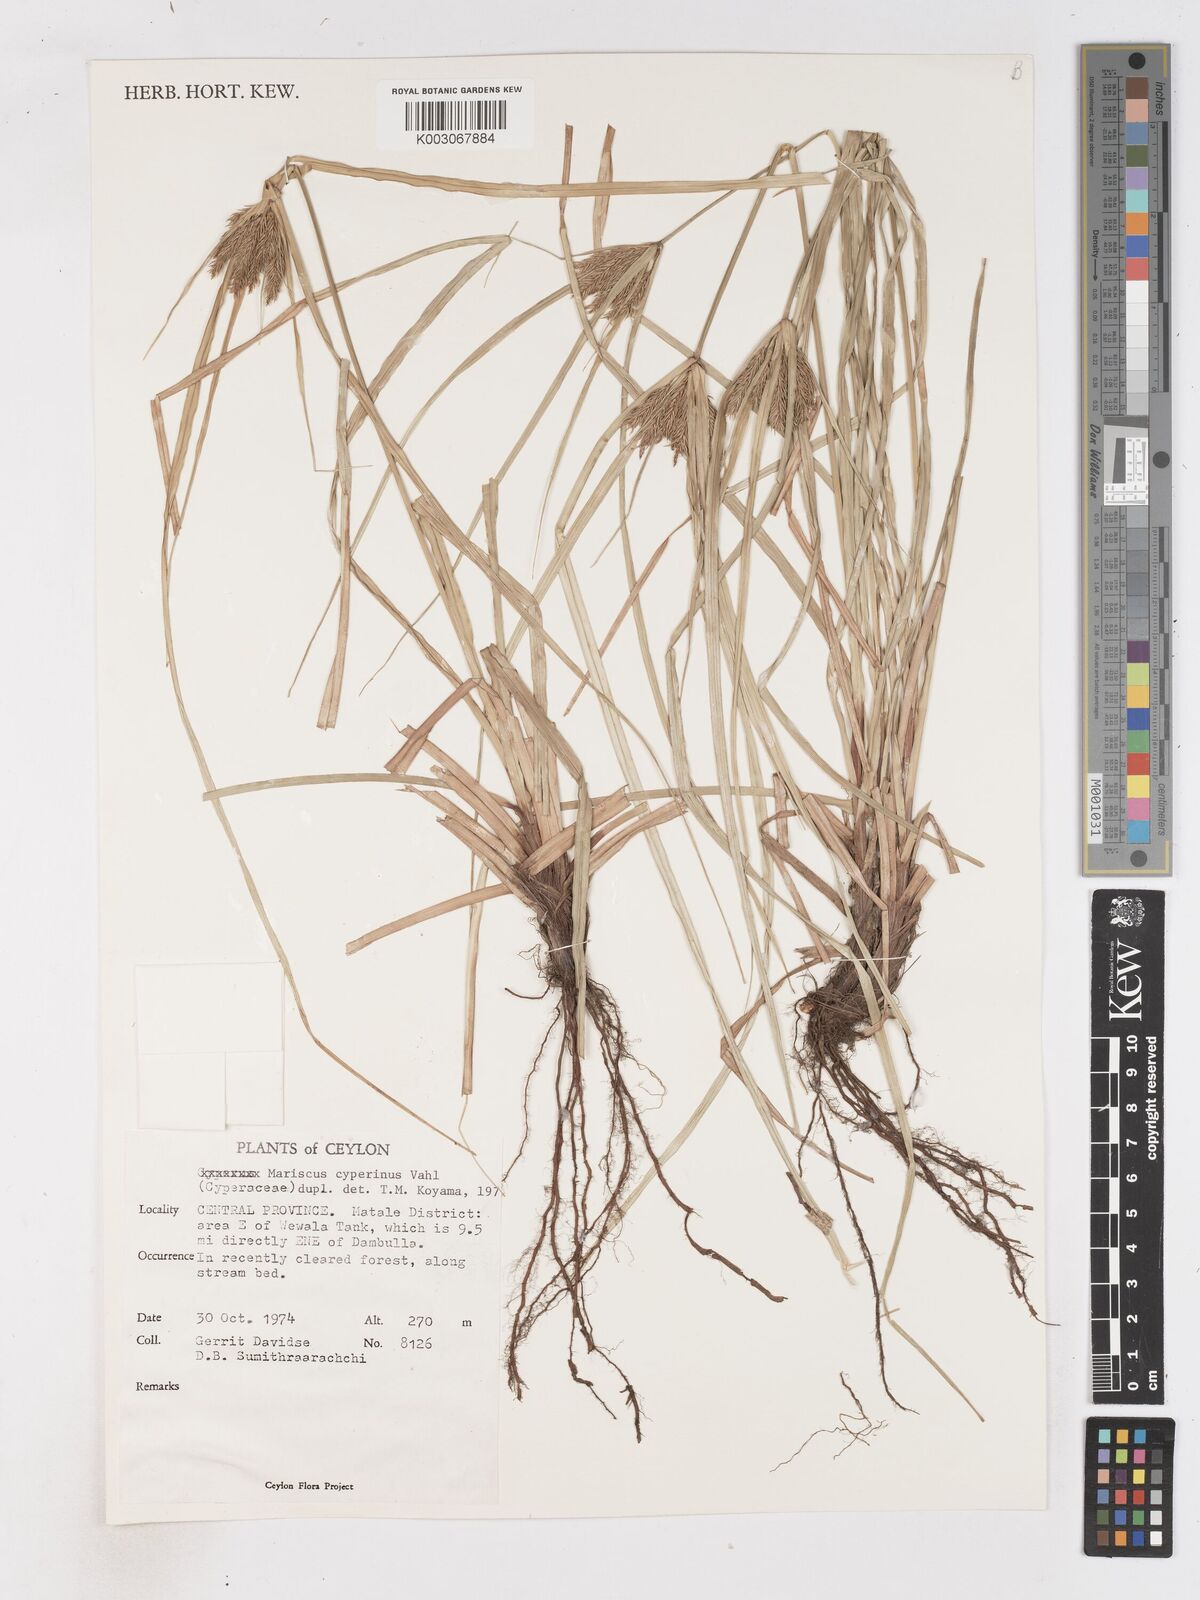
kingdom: Plantae
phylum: Tracheophyta
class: Liliopsida
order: Poales
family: Cyperaceae
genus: Cyperus
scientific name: Cyperus cyperinus
